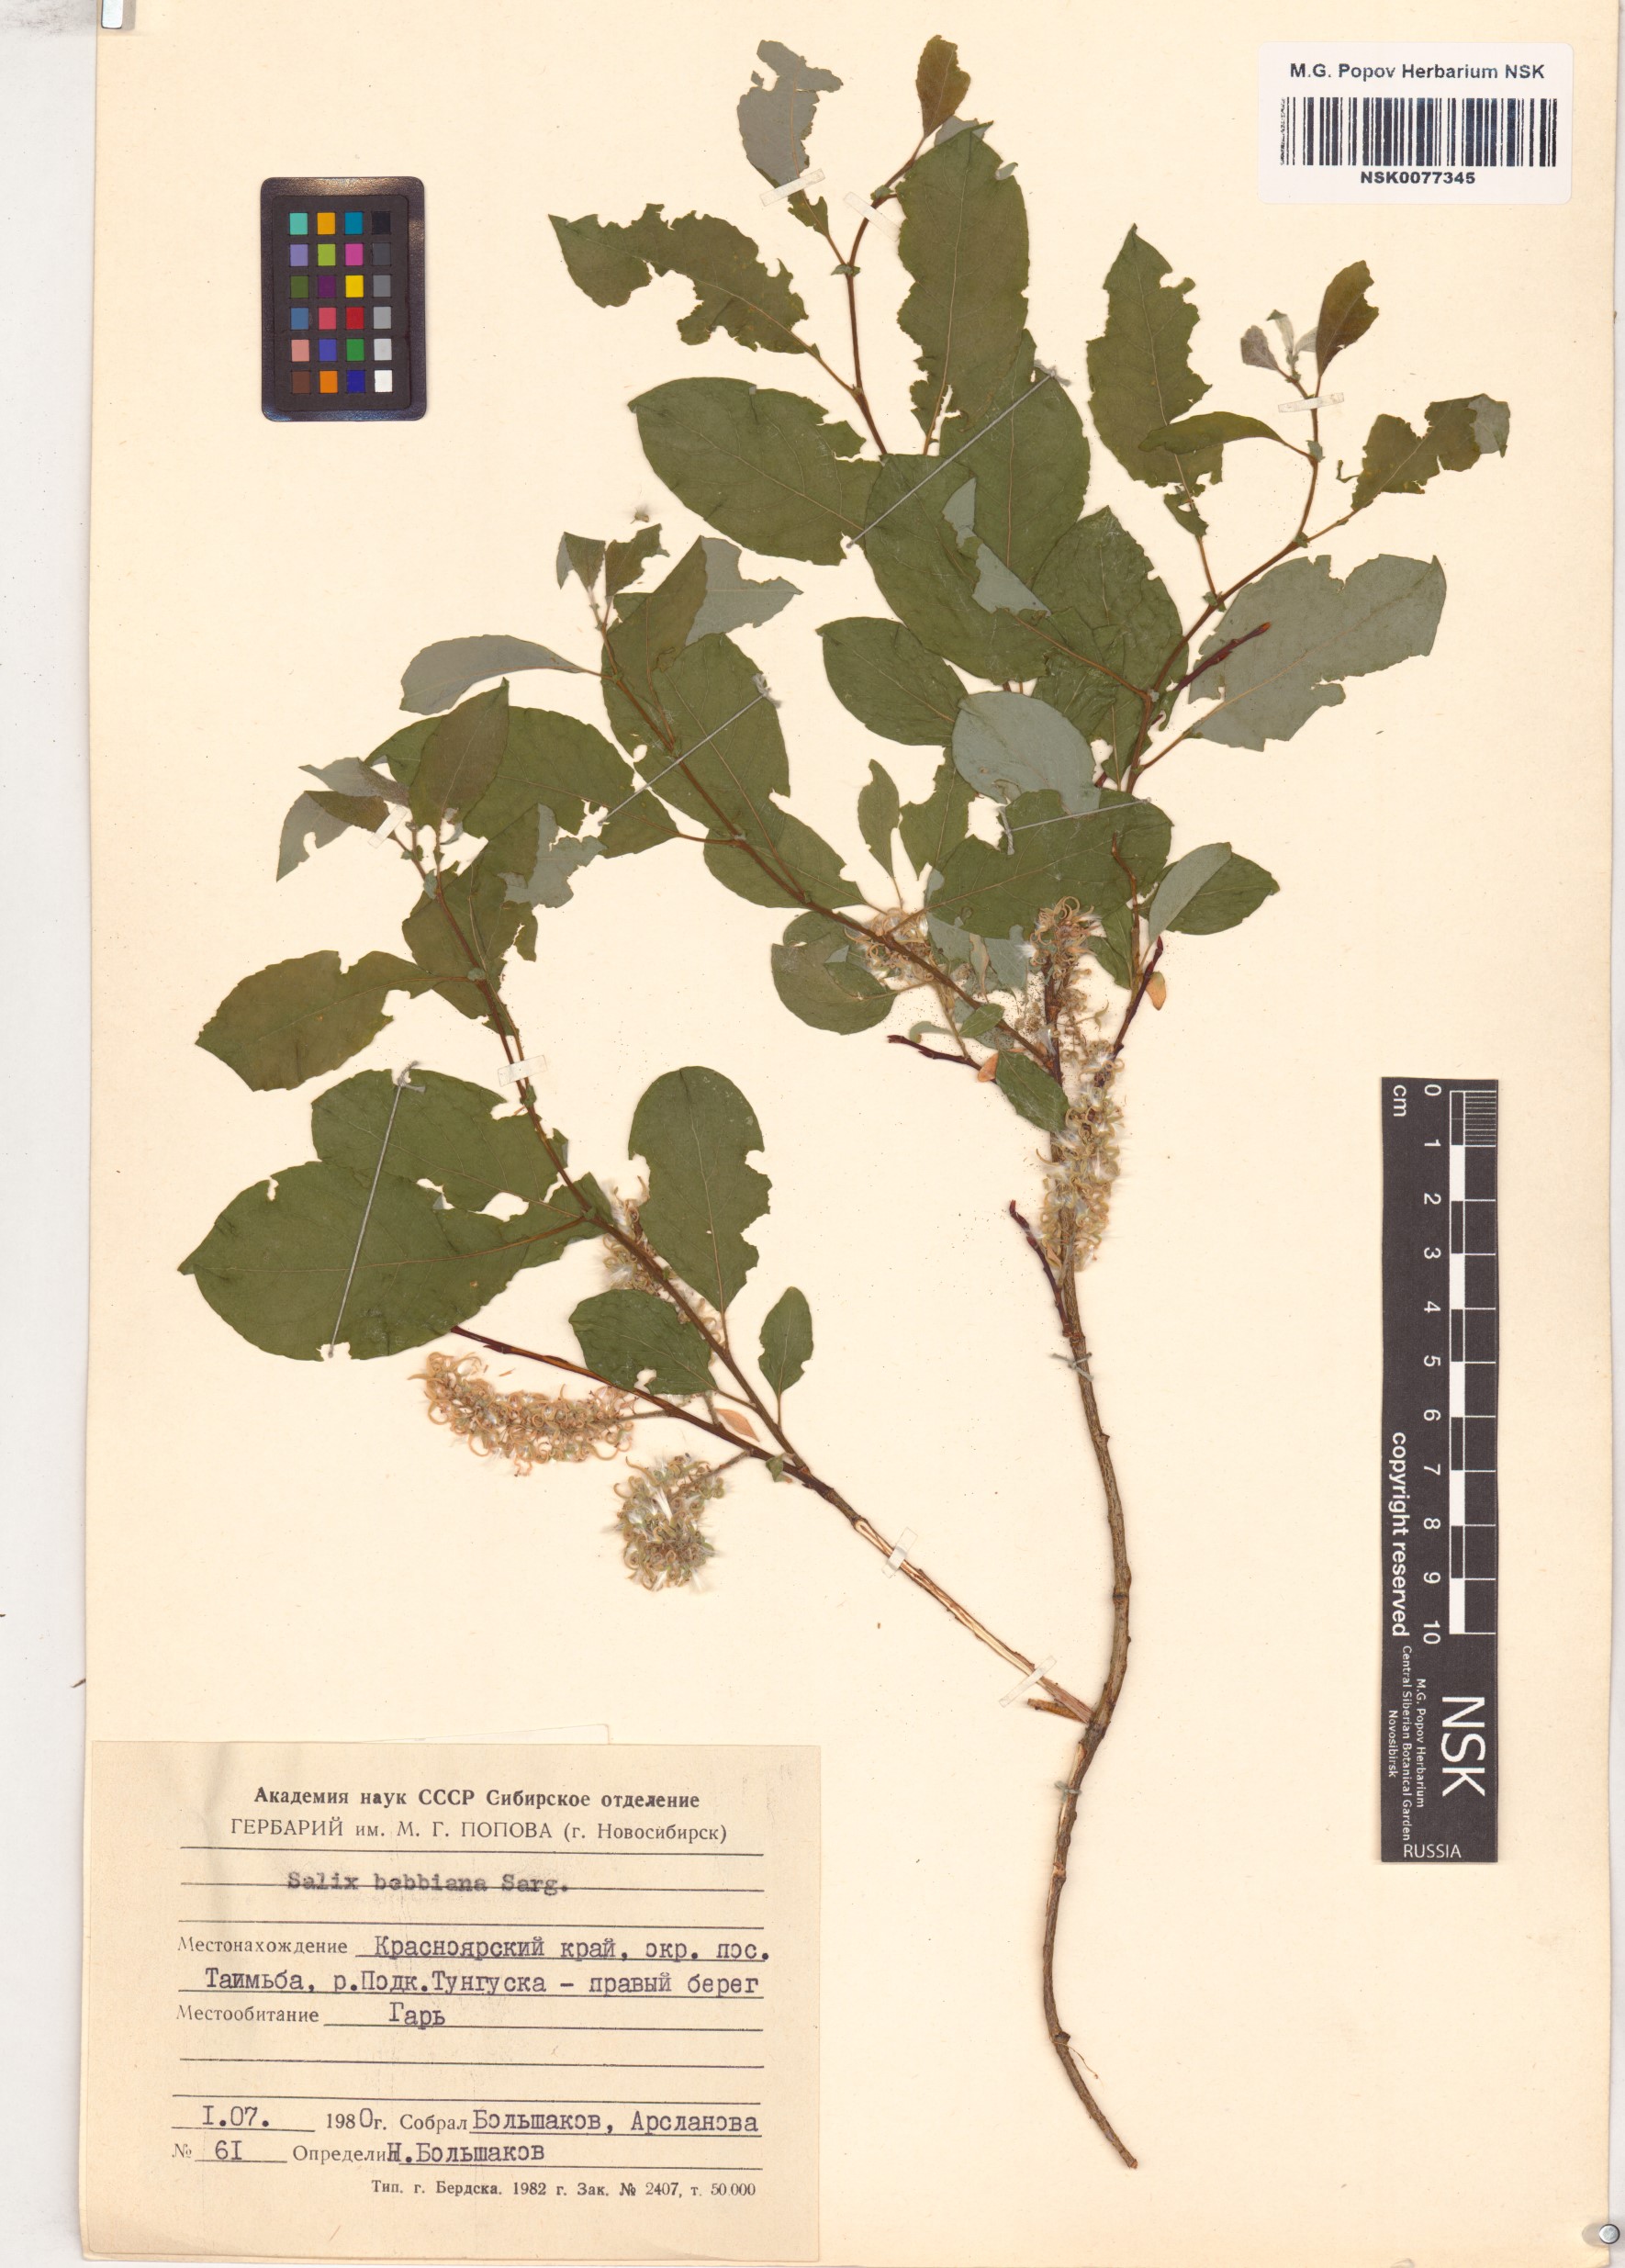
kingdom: Plantae
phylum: Tracheophyta
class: Magnoliopsida
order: Malpighiales
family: Salicaceae
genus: Salix
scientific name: Salix bebbiana
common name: Bebb's willow
